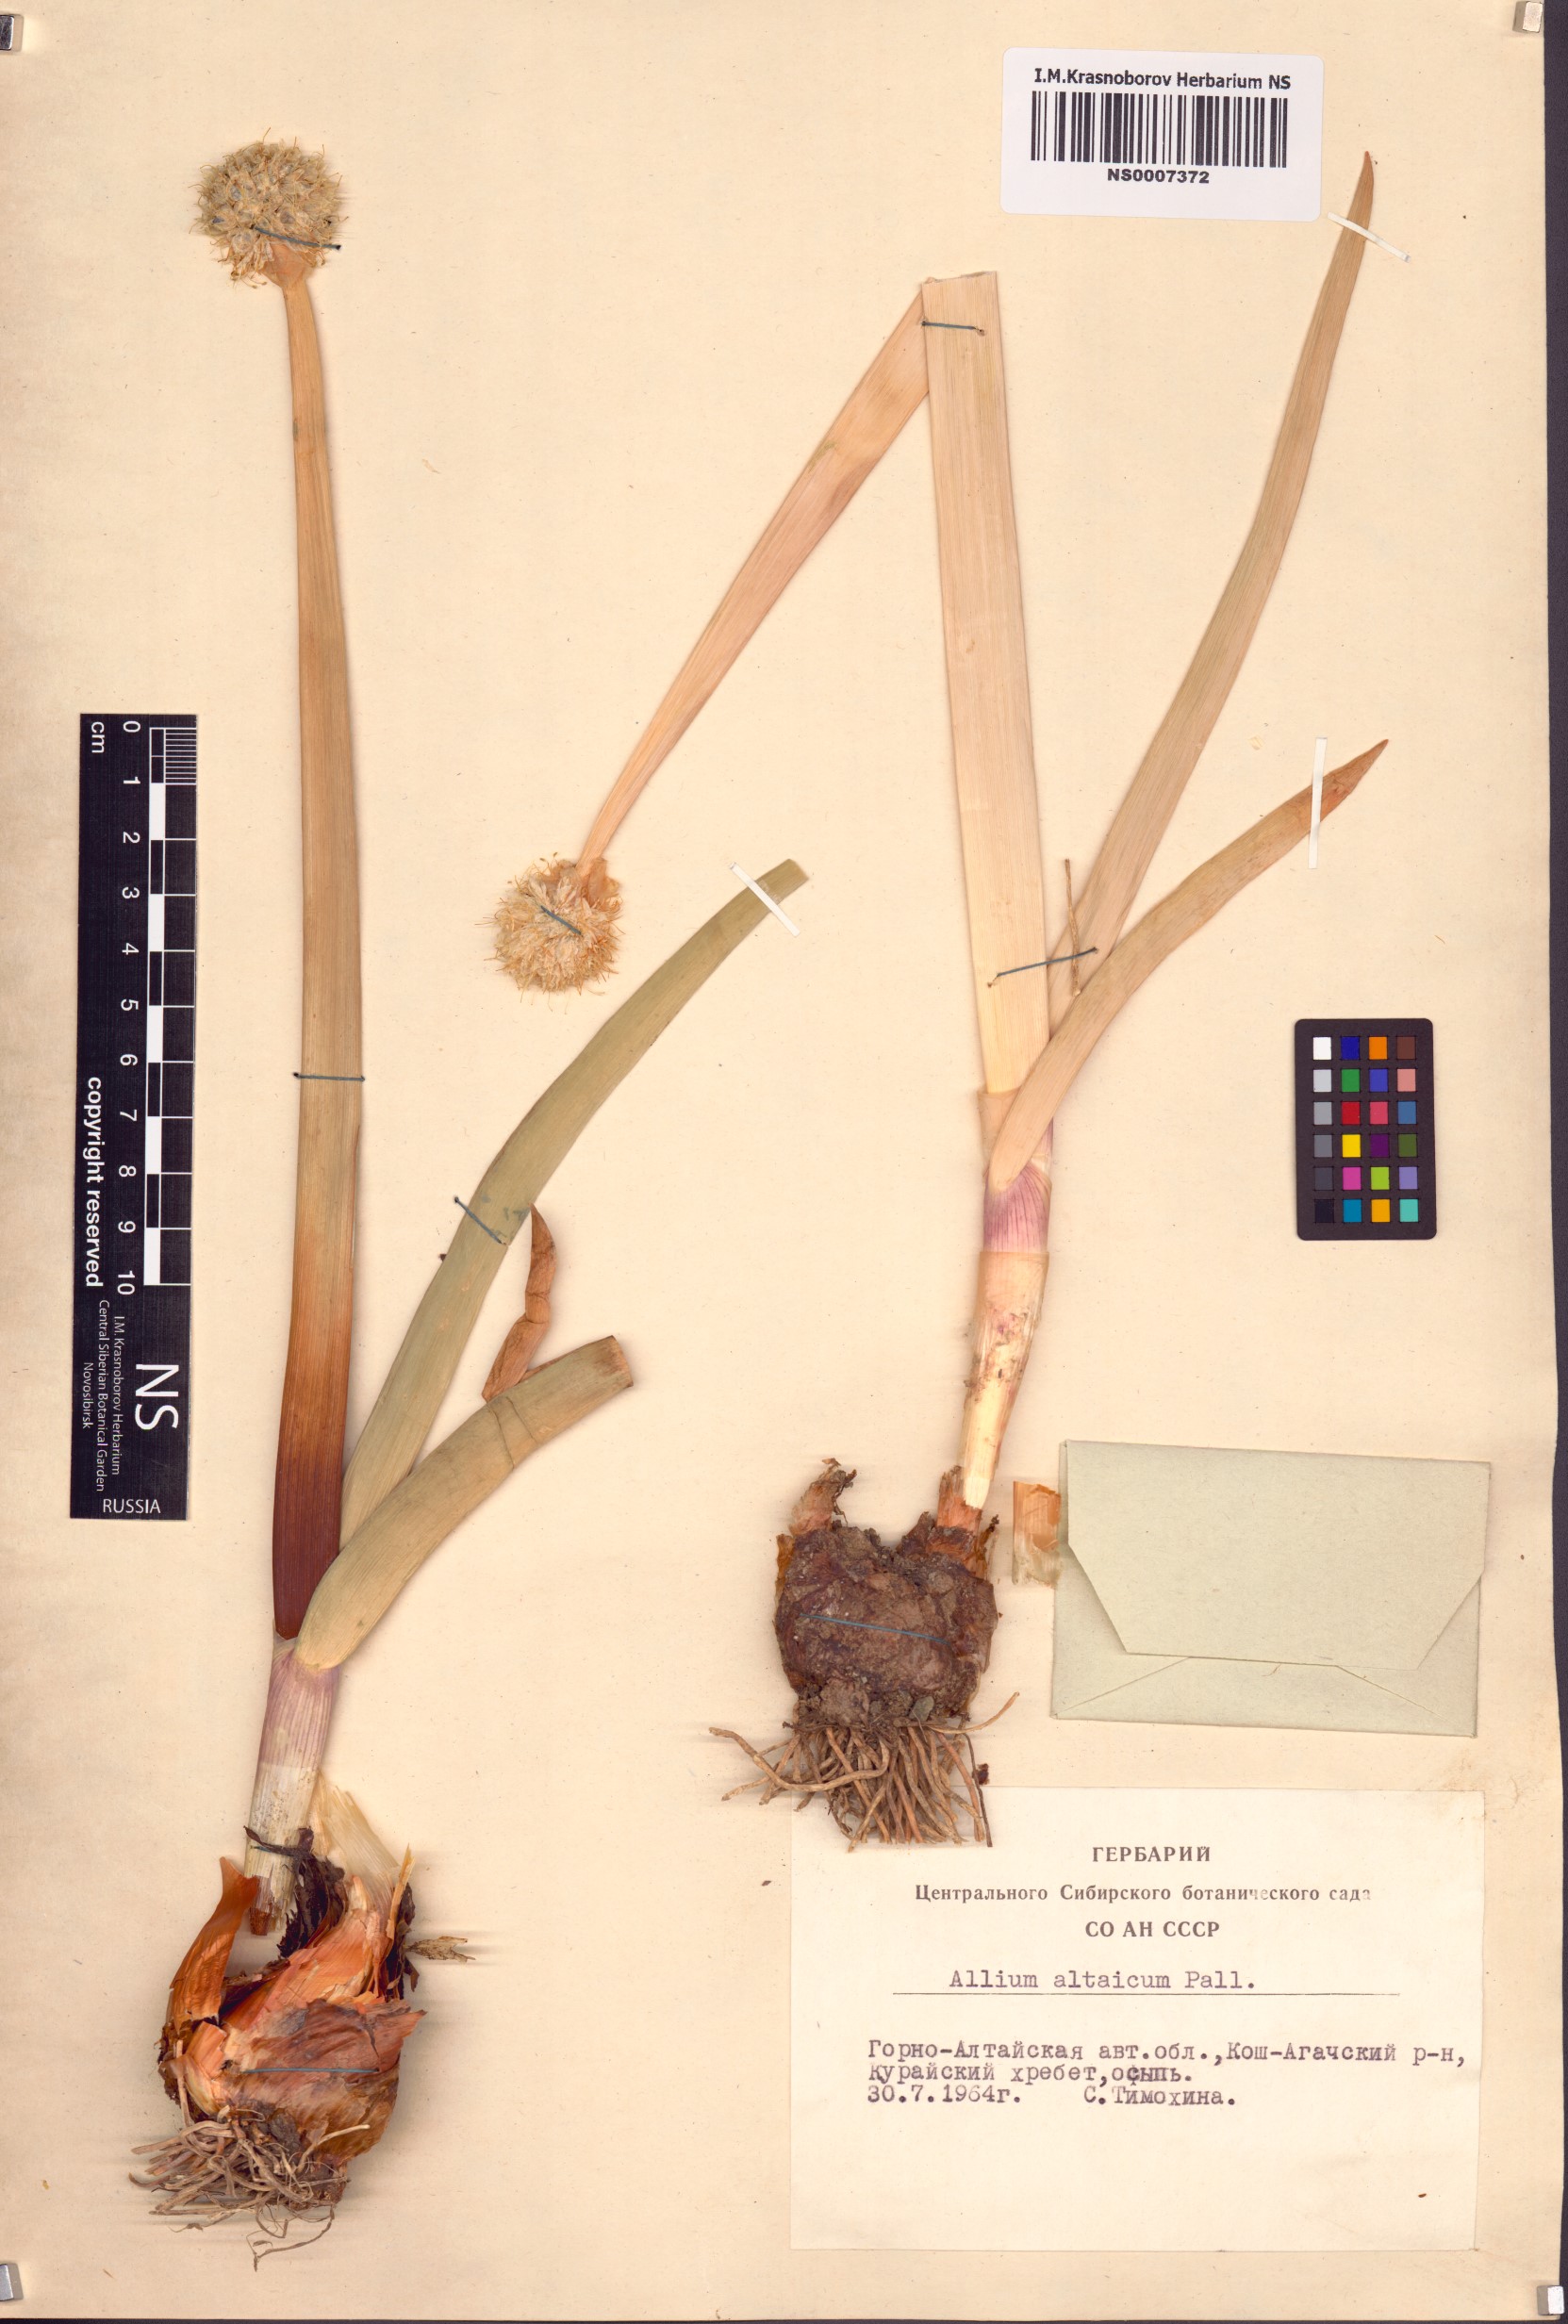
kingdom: Plantae
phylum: Tracheophyta
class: Liliopsida
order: Asparagales
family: Amaryllidaceae
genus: Allium
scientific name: Allium altaicum
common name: Altai onion
